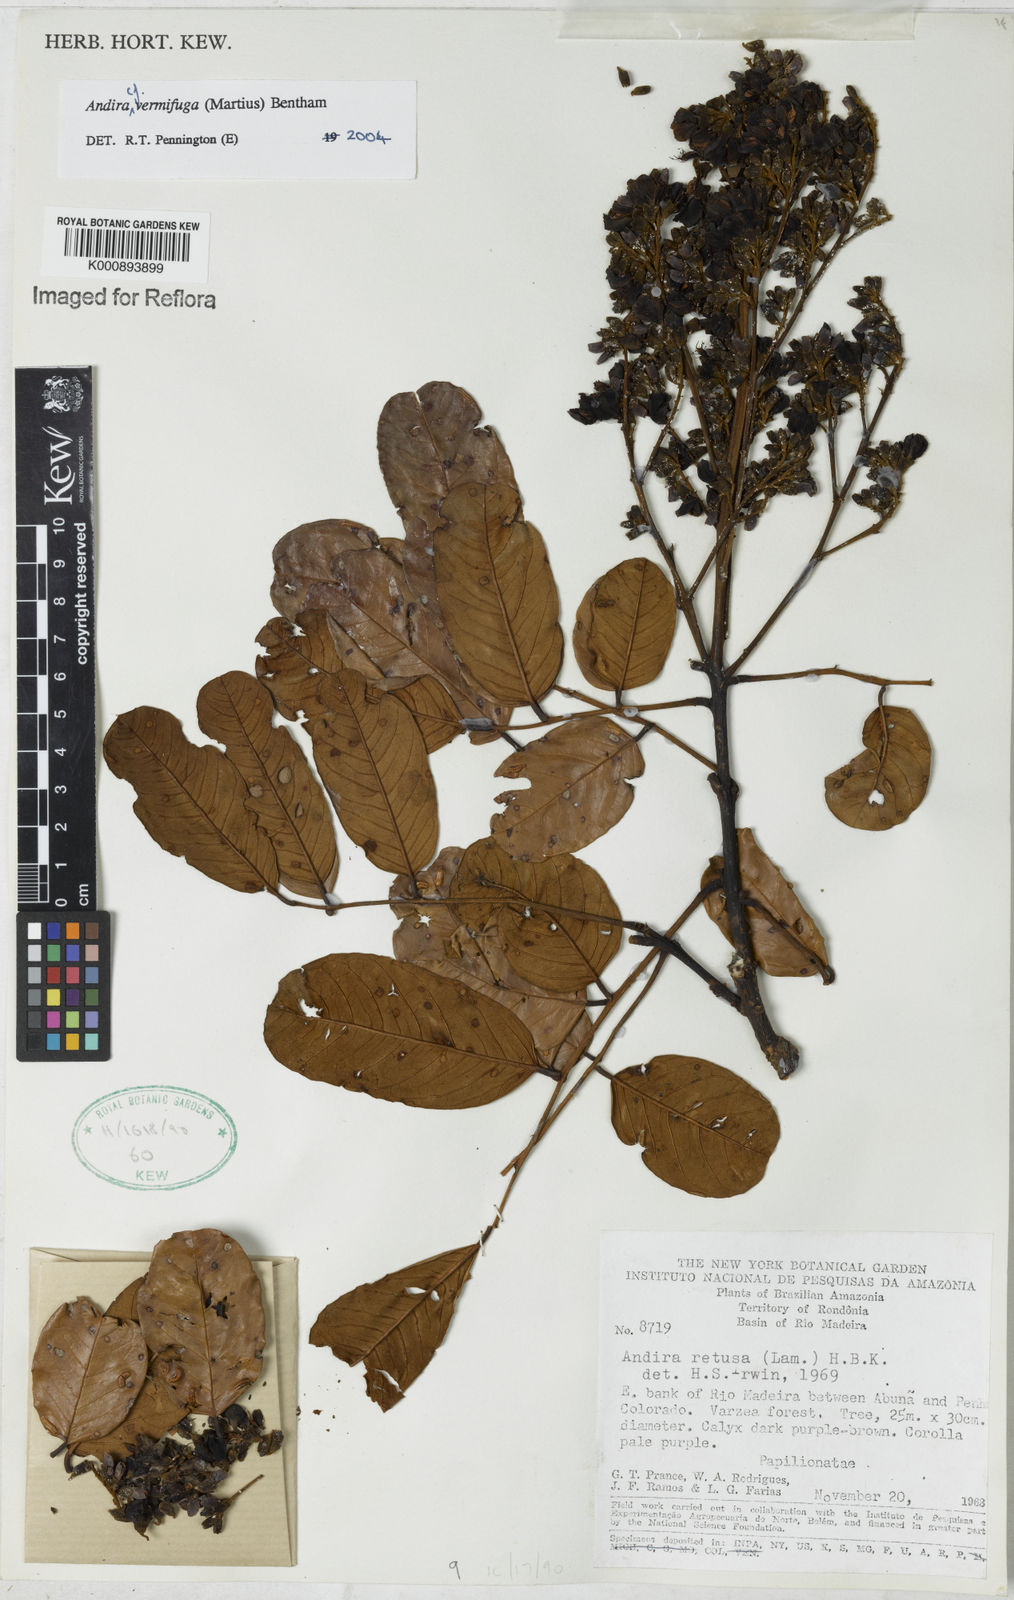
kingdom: Plantae
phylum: Tracheophyta
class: Magnoliopsida
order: Fabales
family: Fabaceae
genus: Andira
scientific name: Andira vermifuga
